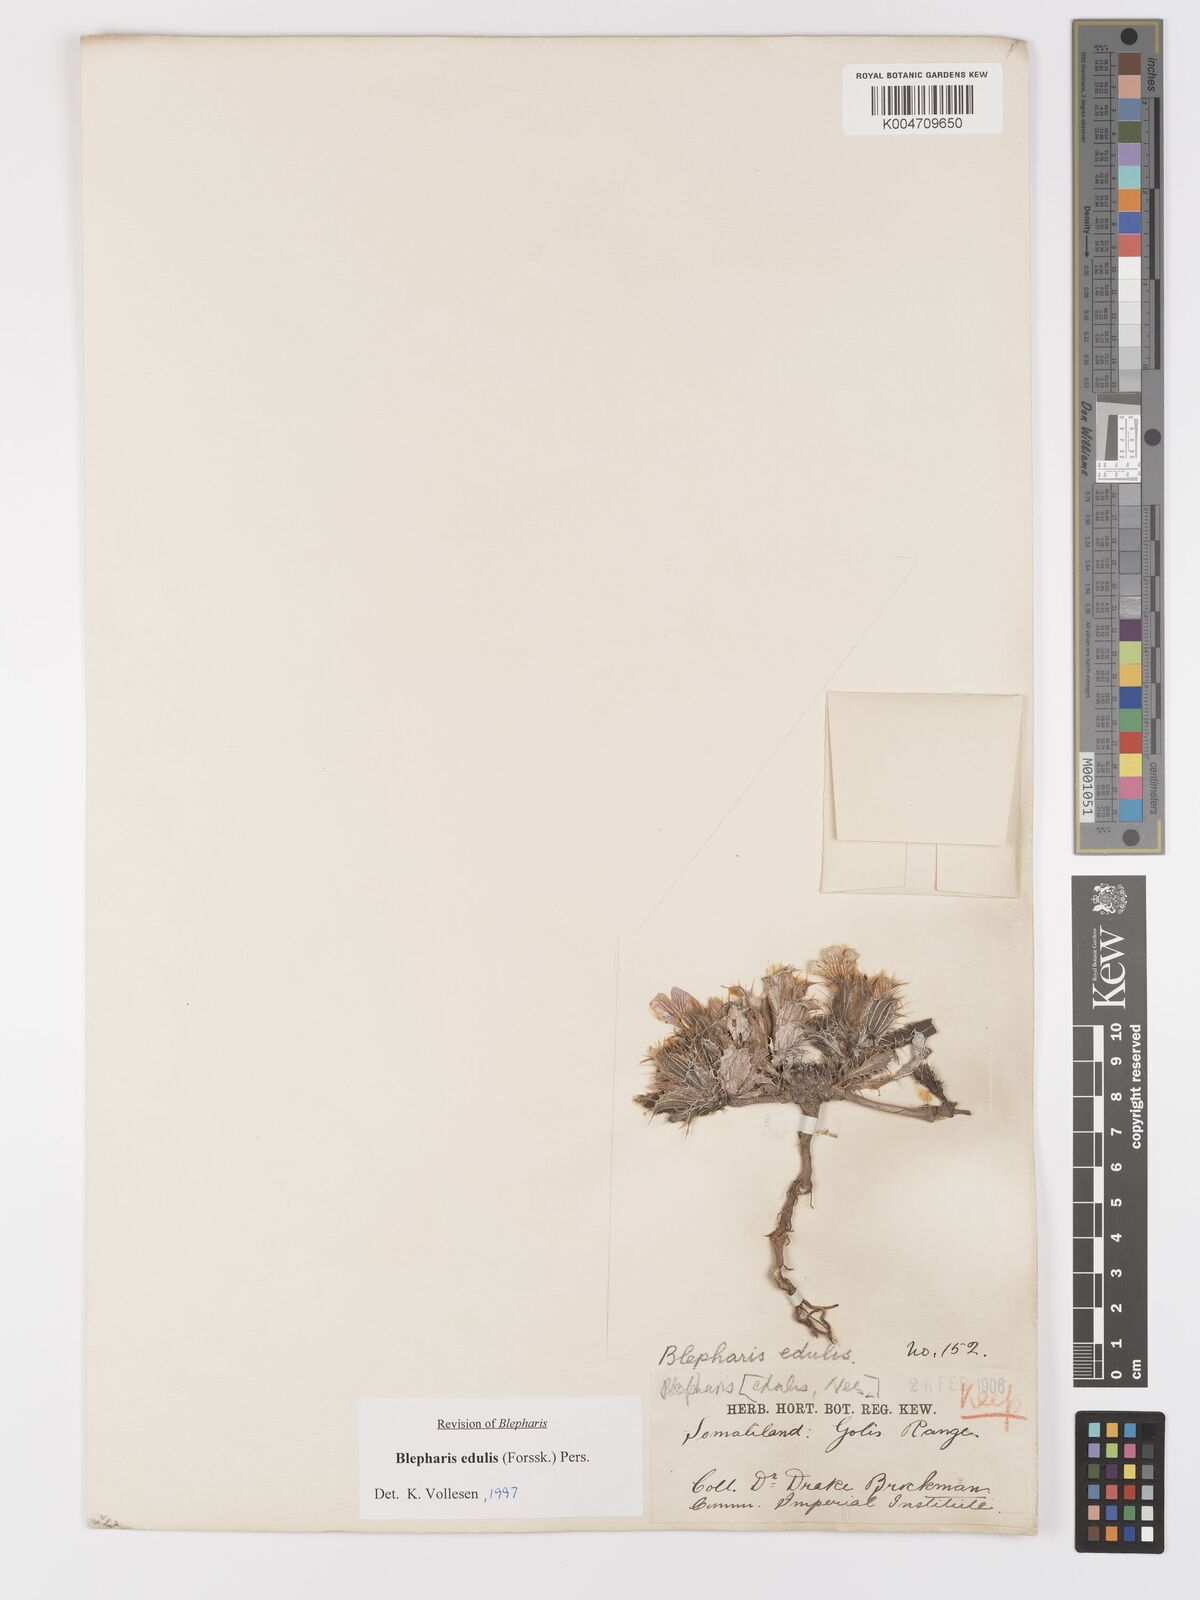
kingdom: Plantae
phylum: Tracheophyta
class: Magnoliopsida
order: Lamiales
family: Acanthaceae
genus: Blepharis
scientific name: Blepharis edulis
